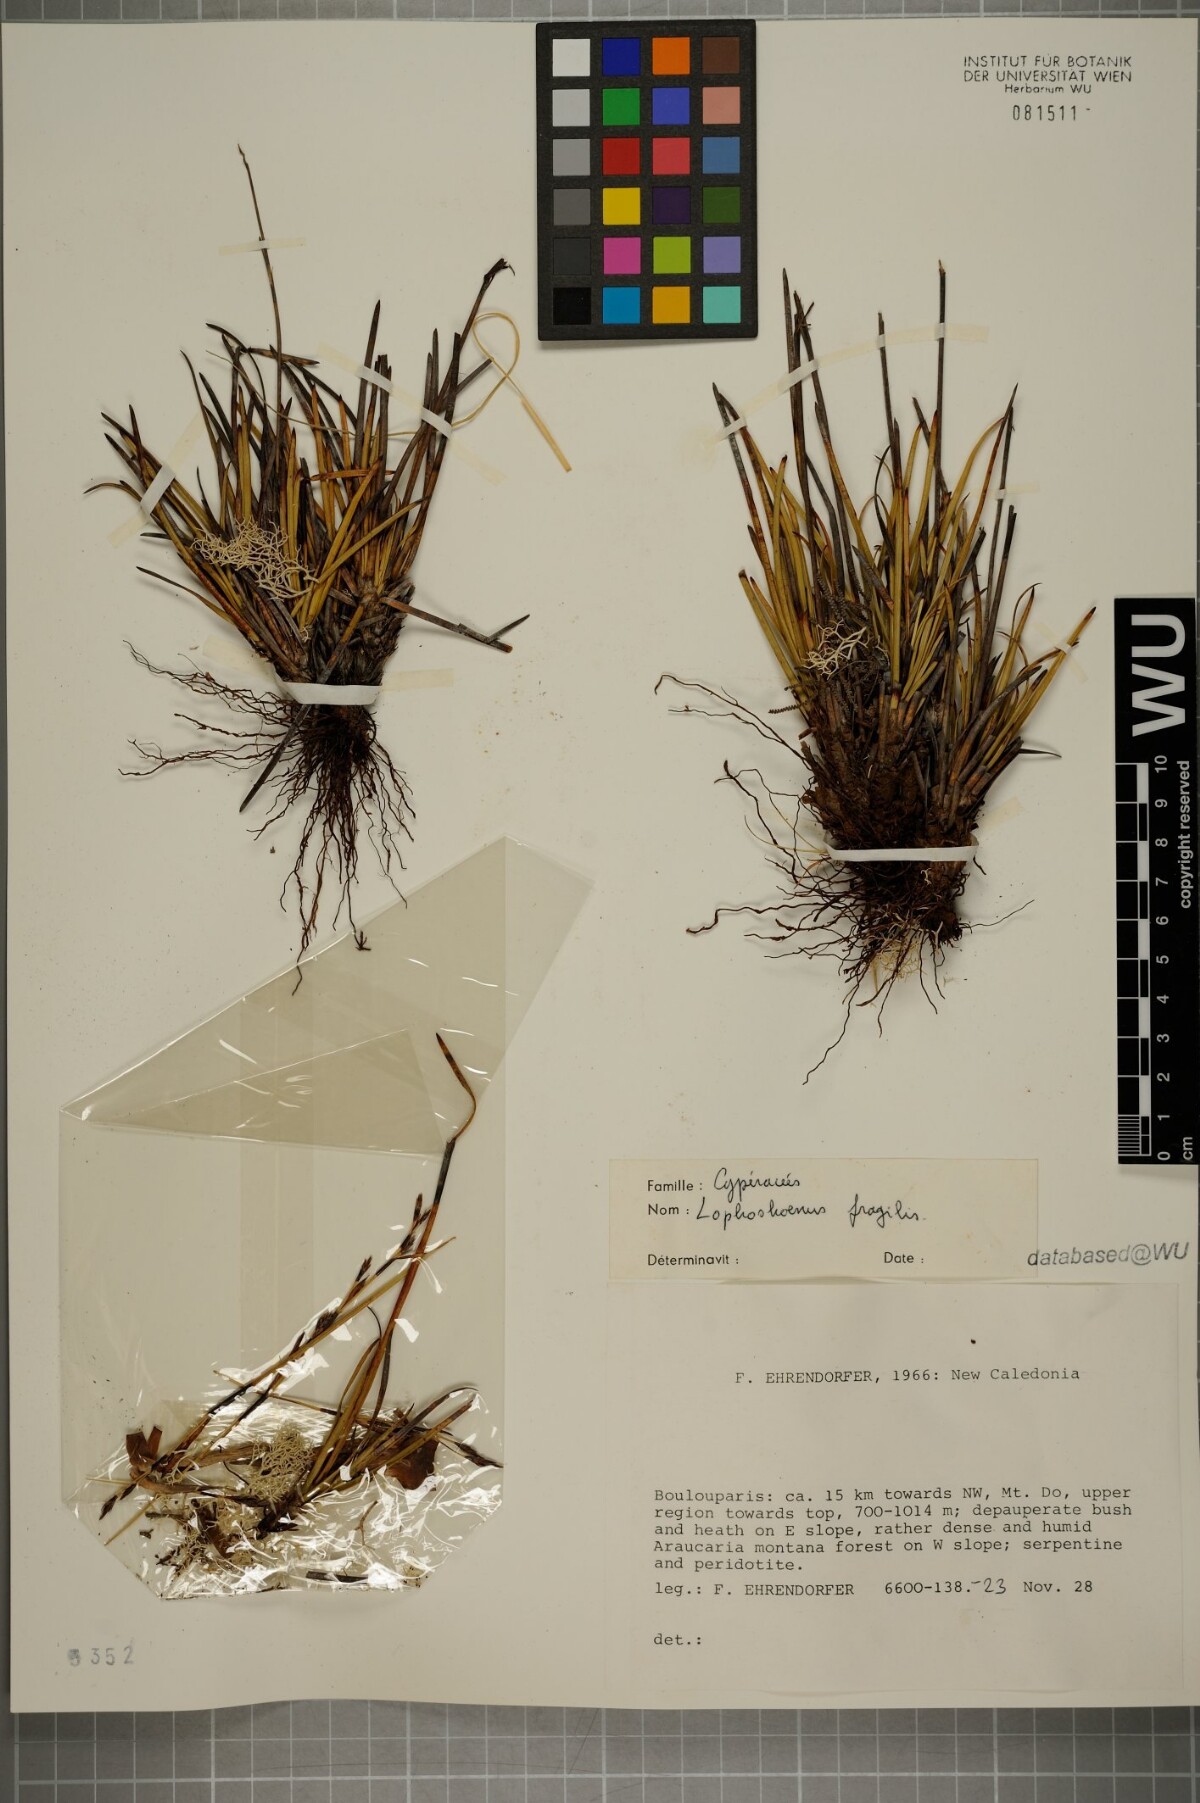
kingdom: Plantae
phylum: Tracheophyta
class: Liliopsida
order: Poales
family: Cyperaceae
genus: Chamaedendron
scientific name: Chamaedendron fragilis
